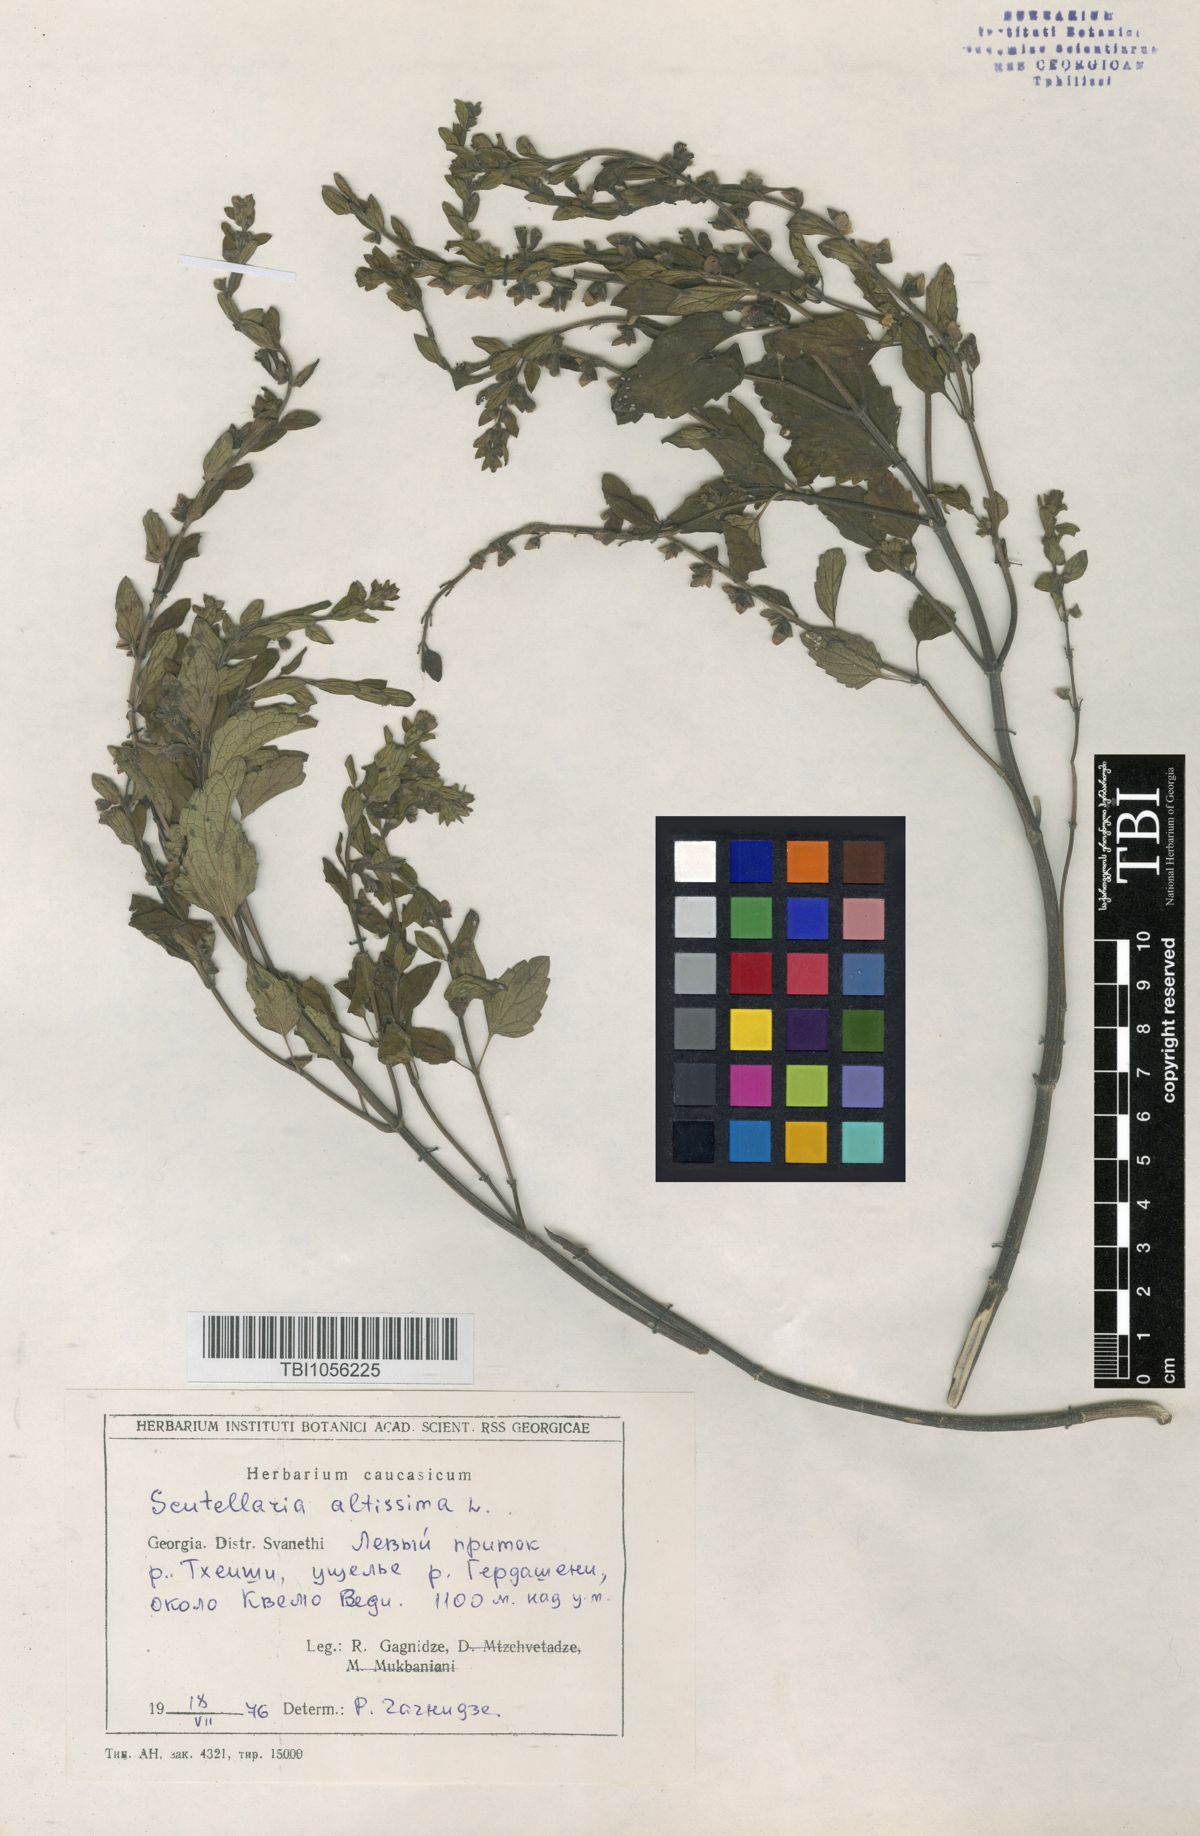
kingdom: Plantae
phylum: Tracheophyta
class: Magnoliopsida
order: Lamiales
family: Lamiaceae
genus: Scutellaria
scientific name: Scutellaria altissima
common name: Somerset skullcap
